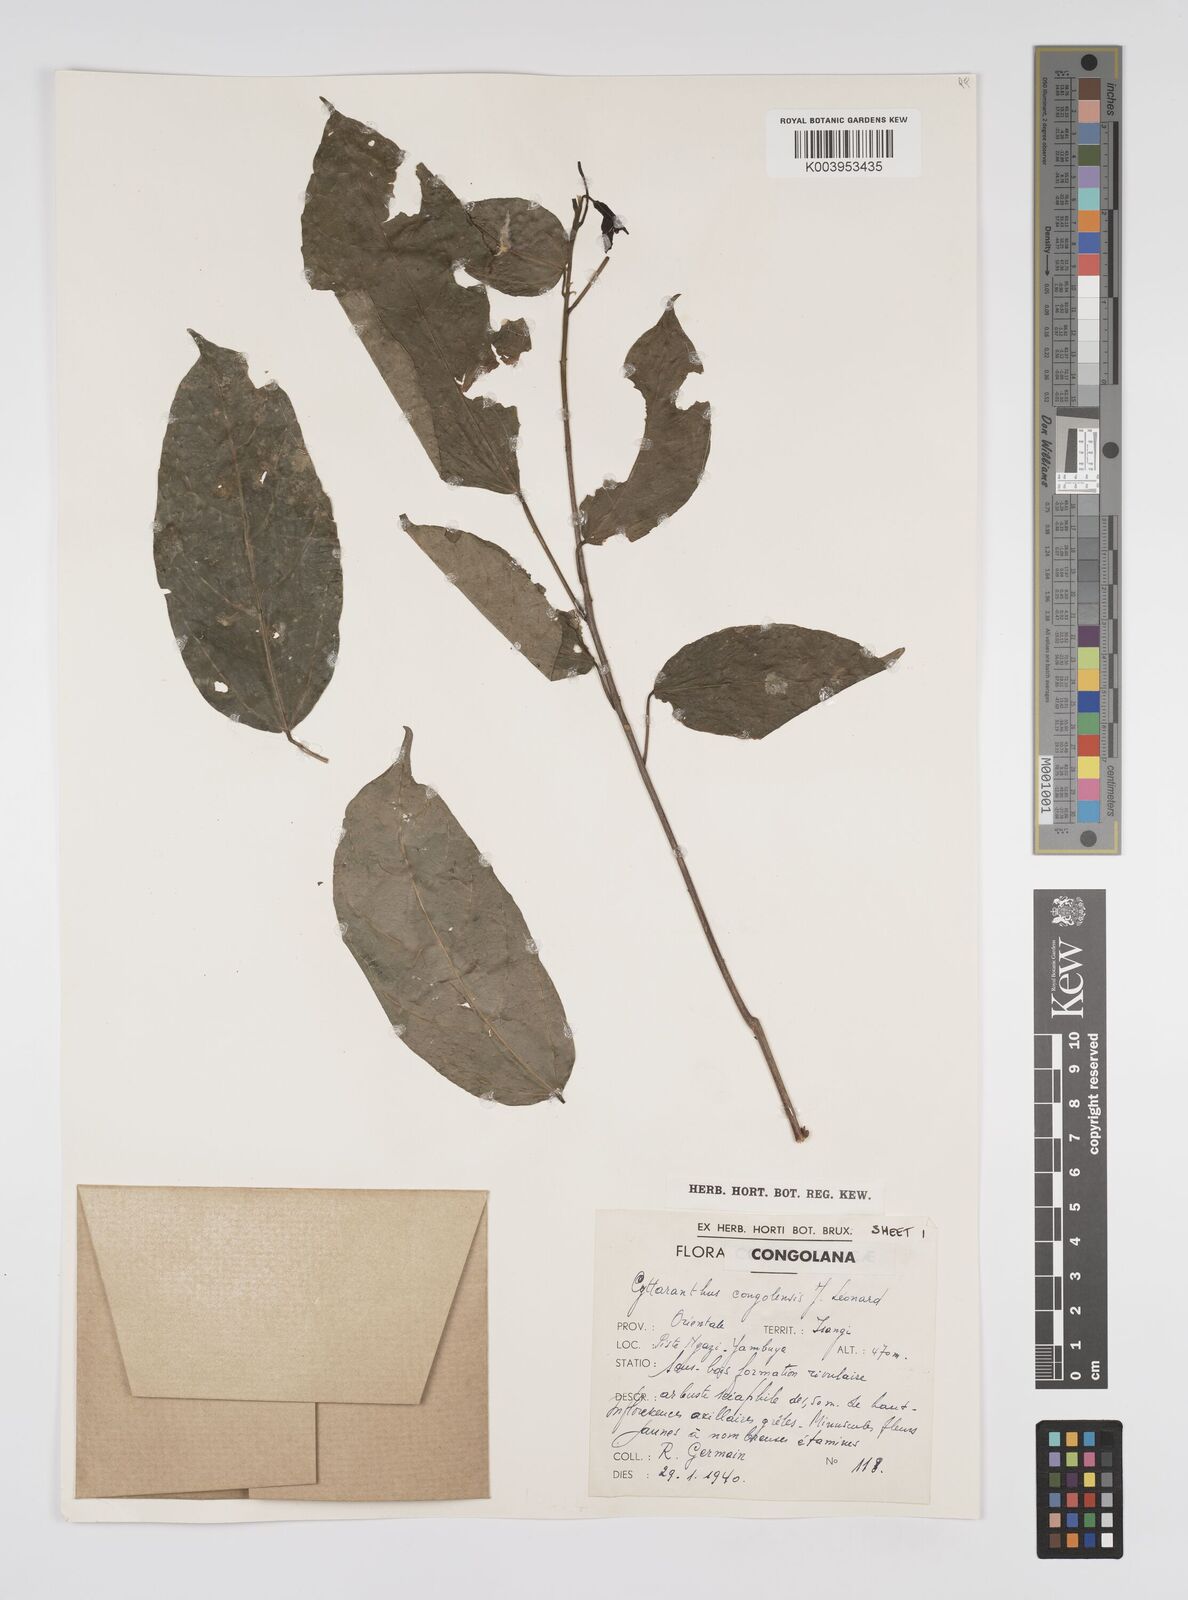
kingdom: Plantae
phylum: Tracheophyta
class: Magnoliopsida
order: Malpighiales
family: Euphorbiaceae
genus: Cyttaranthus
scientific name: Cyttaranthus congolensis
